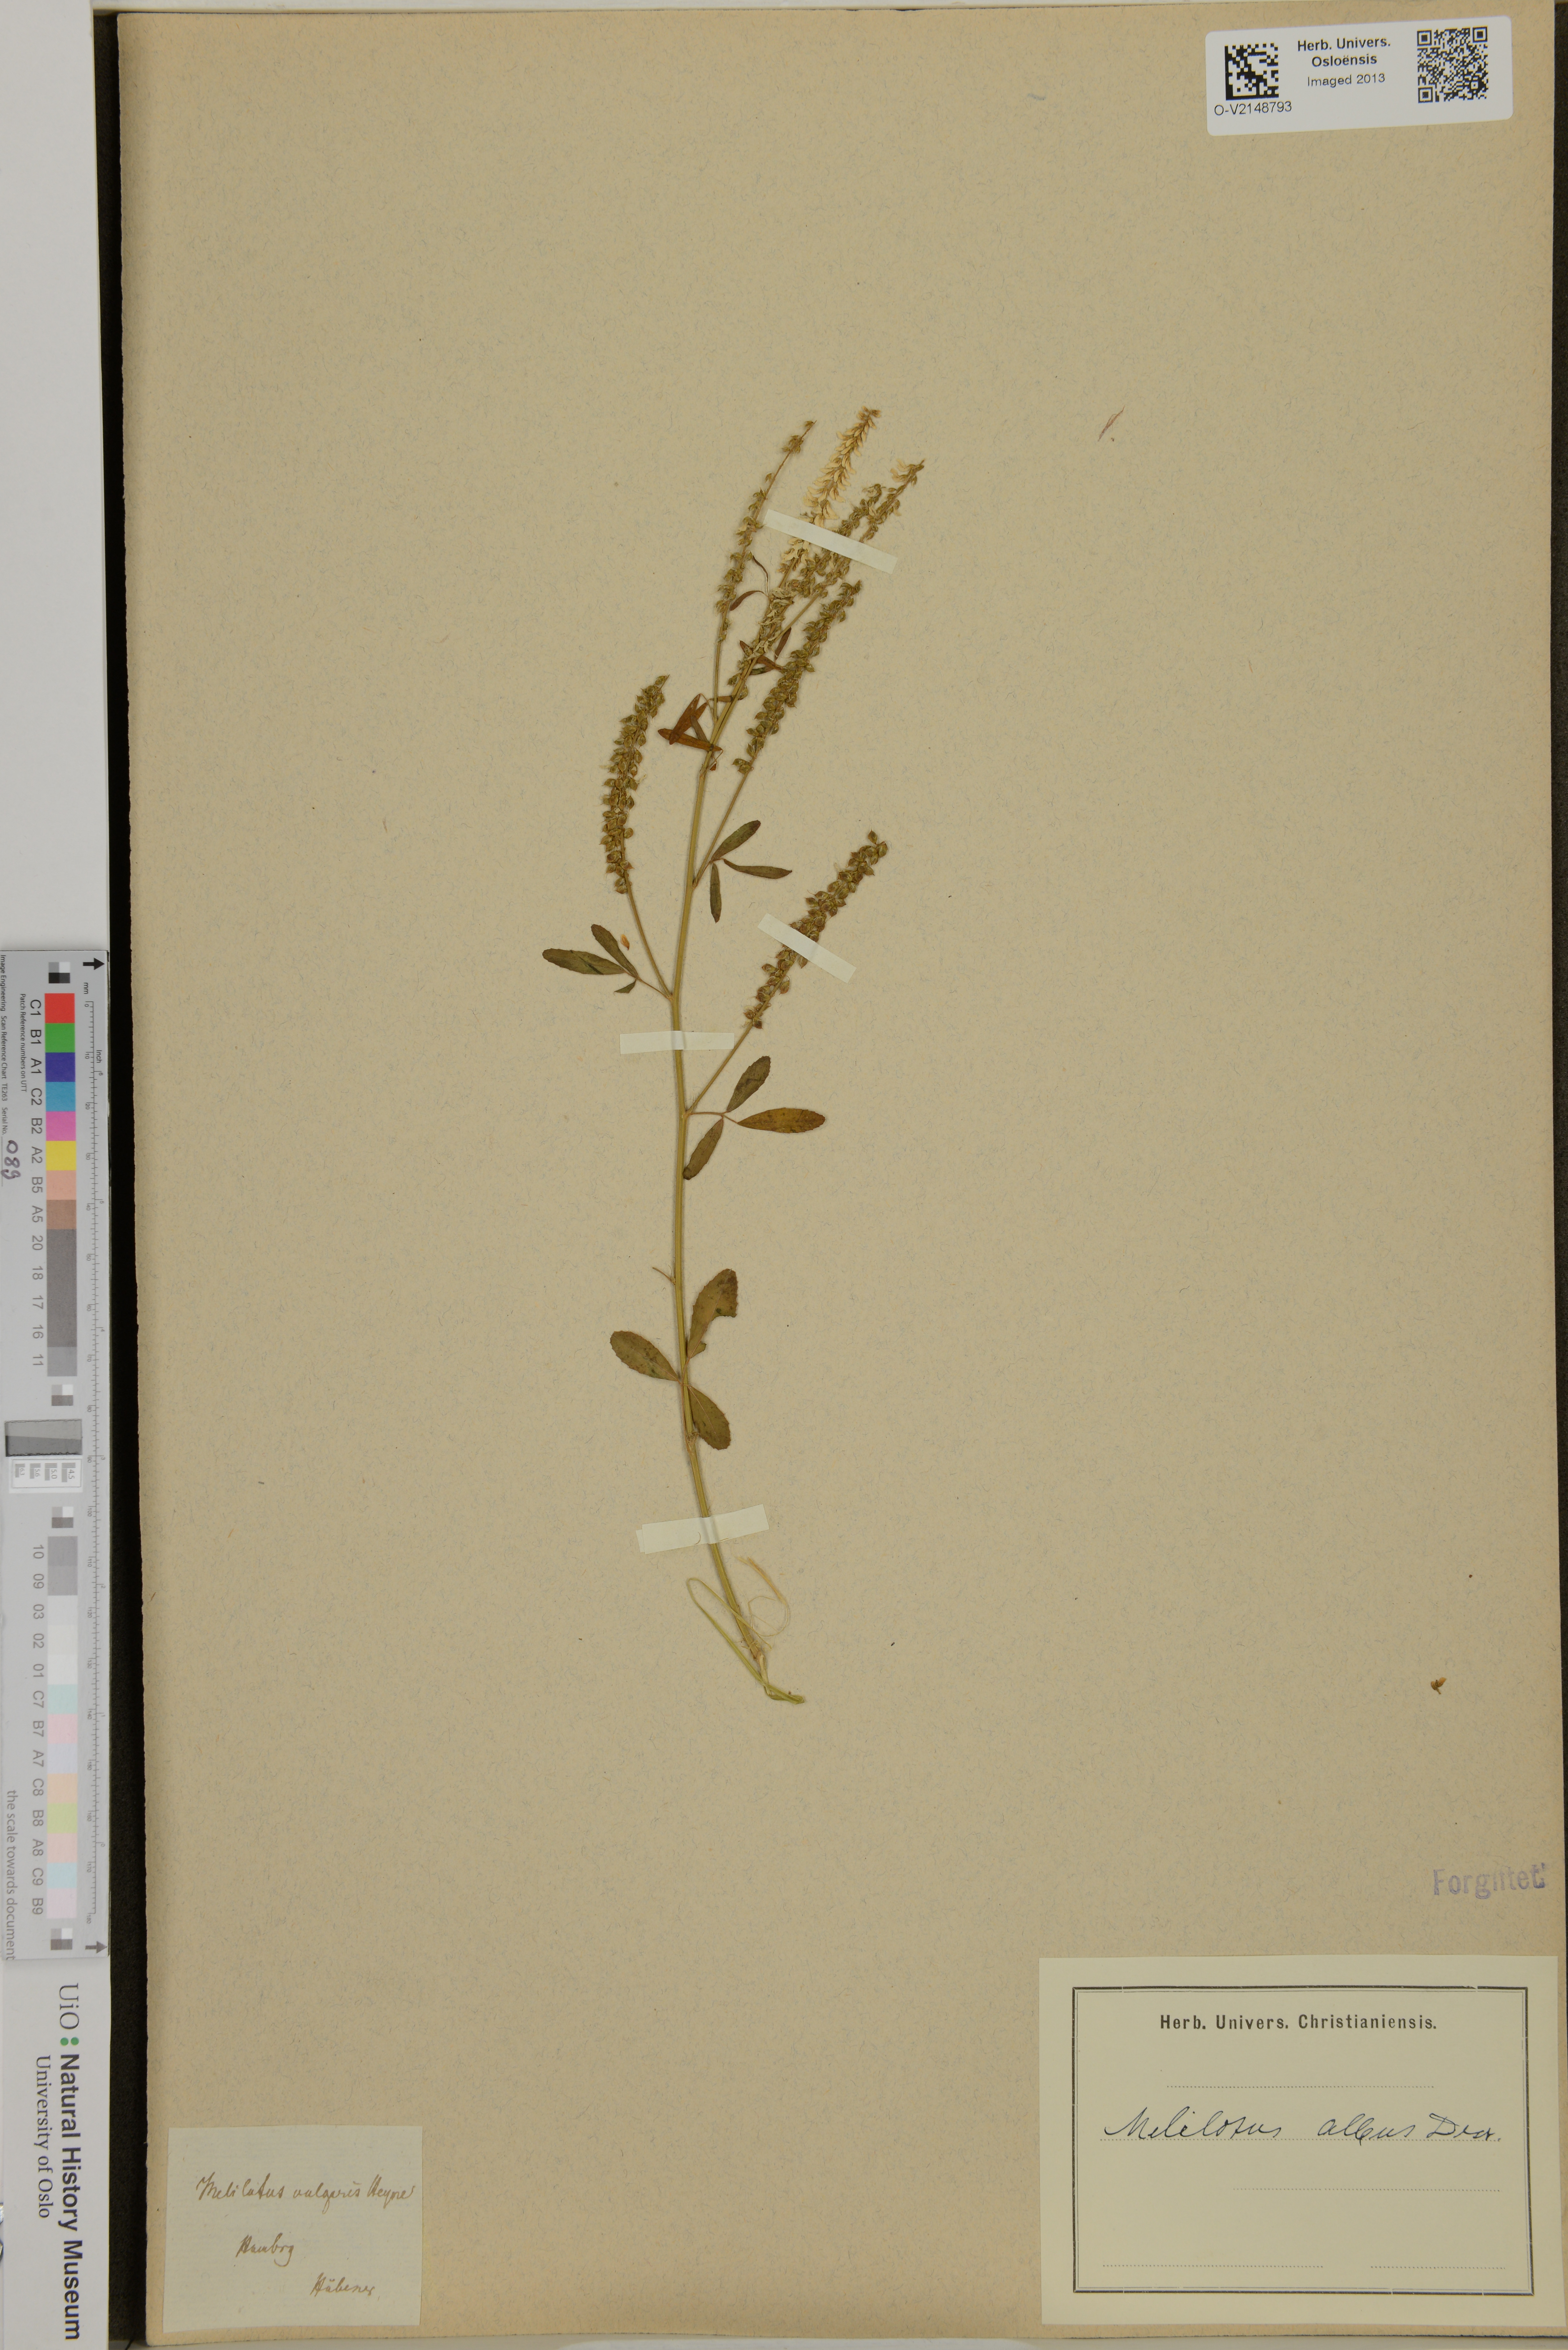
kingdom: Plantae
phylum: Tracheophyta
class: Magnoliopsida
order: Fabales
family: Fabaceae
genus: Melilotus
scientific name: Melilotus albus
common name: White melilot
